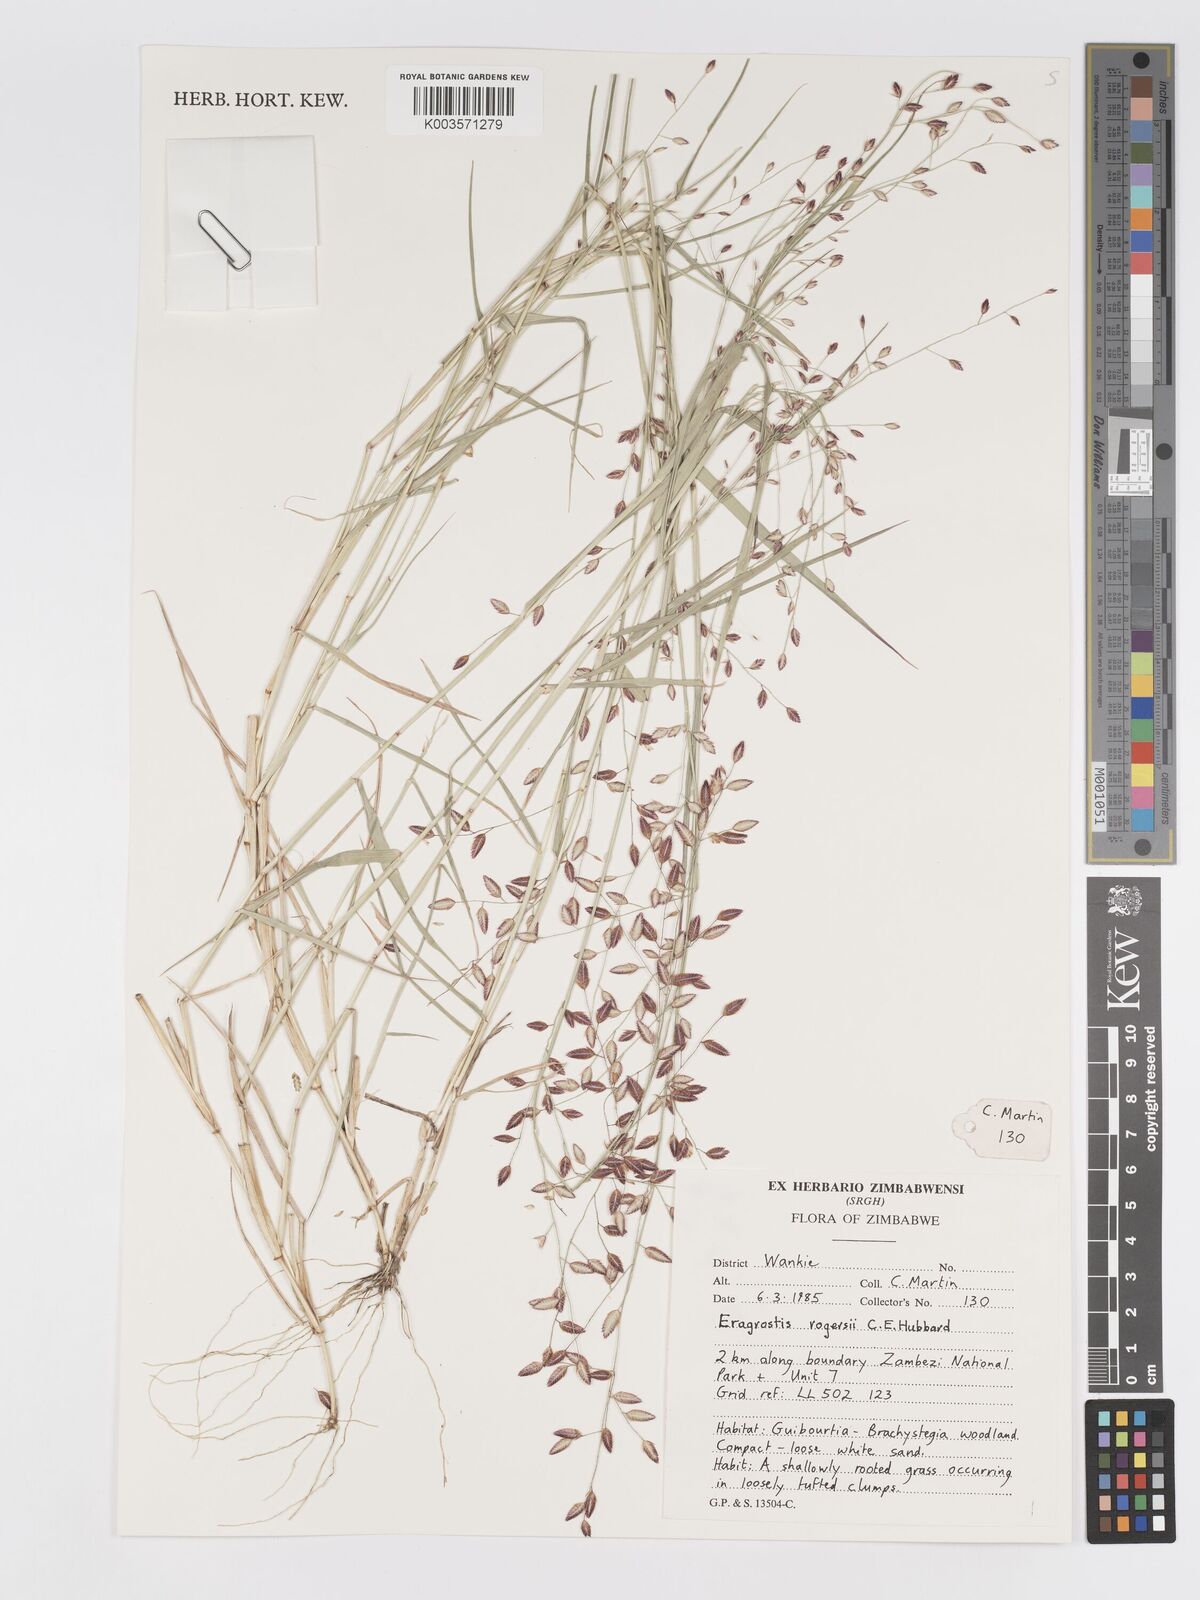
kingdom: Plantae
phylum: Tracheophyta
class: Liliopsida
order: Poales
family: Poaceae
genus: Eragrostis
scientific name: Eragrostis rogersii
